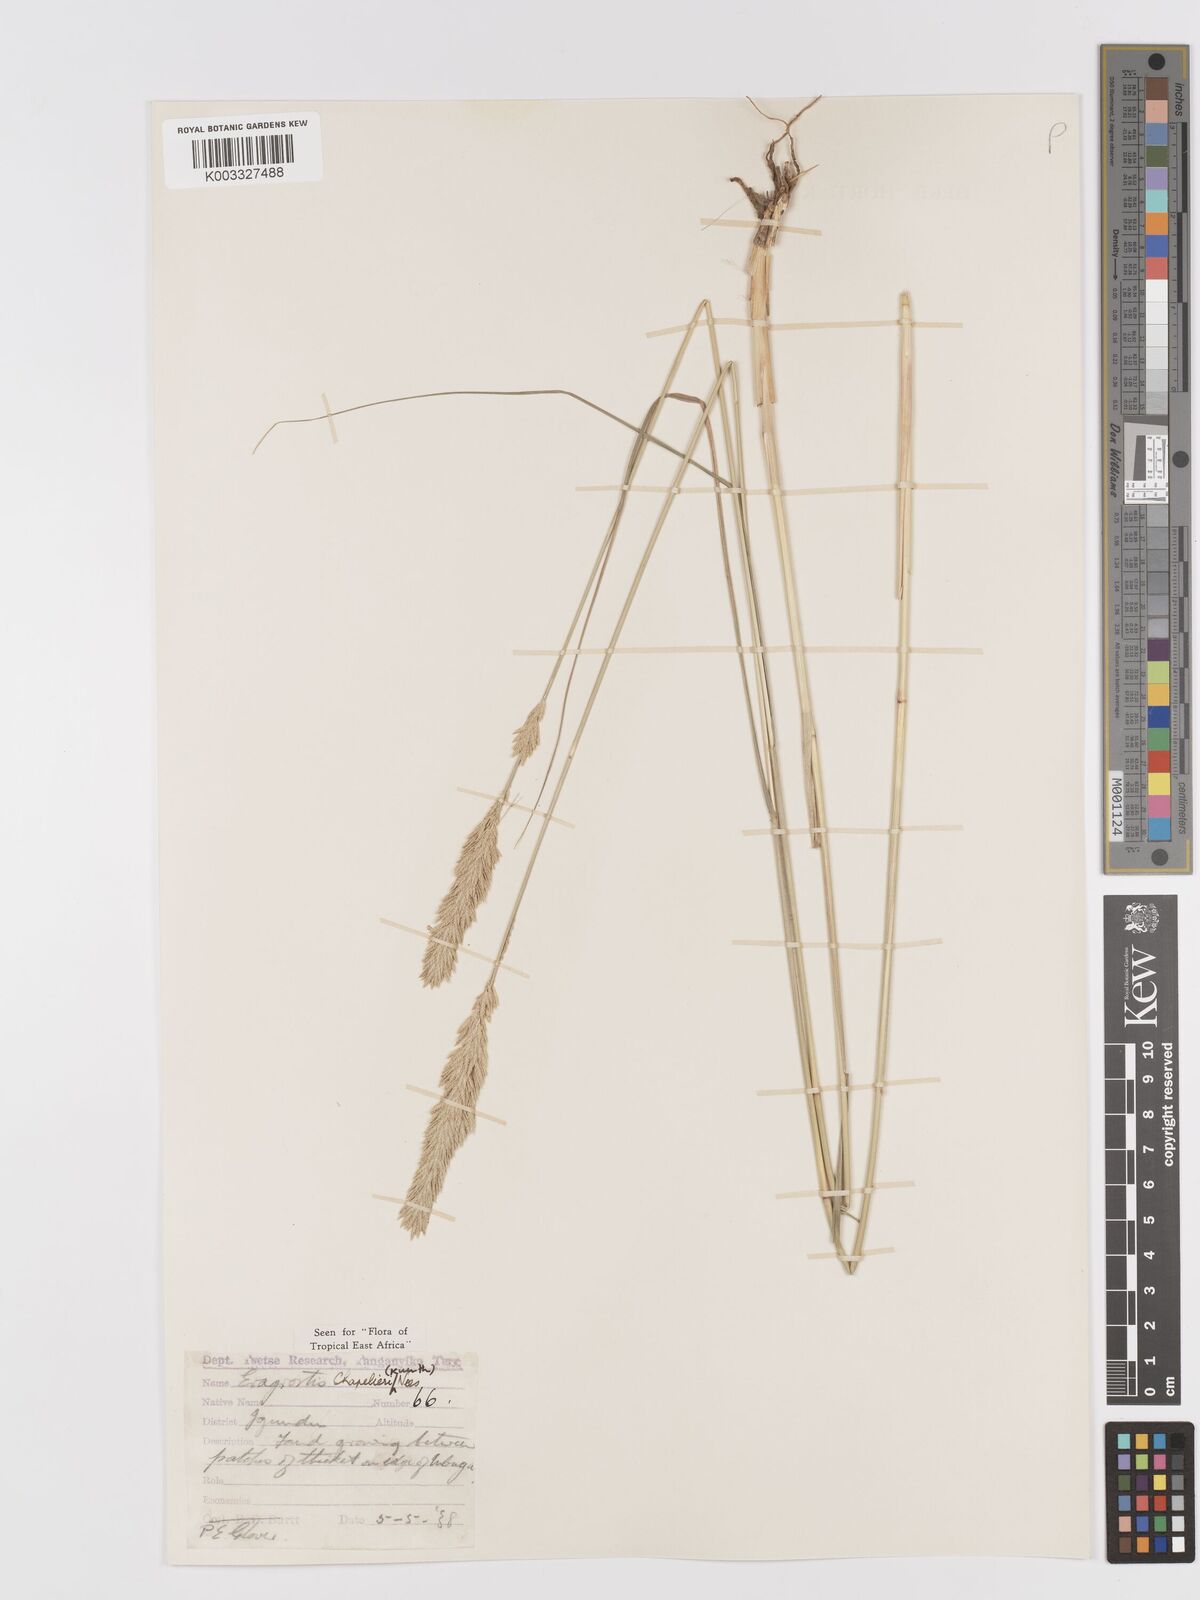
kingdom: Plantae
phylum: Tracheophyta
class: Liliopsida
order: Poales
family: Poaceae
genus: Eragrostis
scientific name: Eragrostis chapelieri
